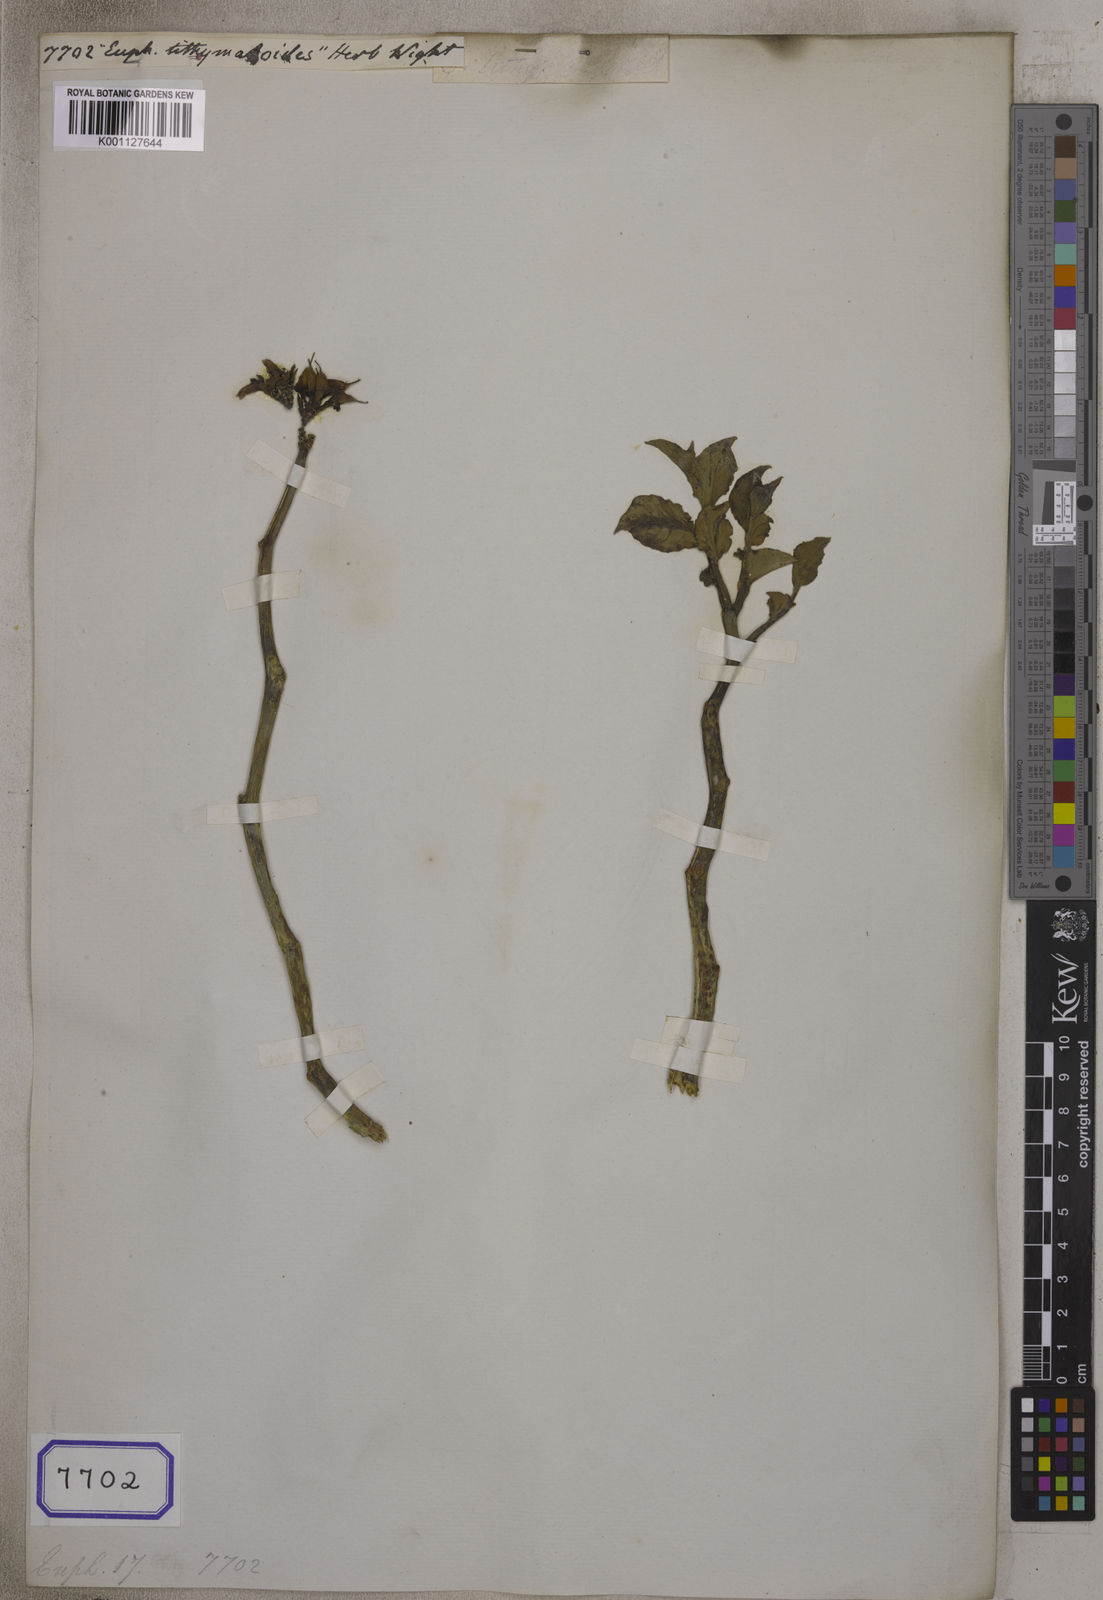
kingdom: Plantae
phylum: Tracheophyta
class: Magnoliopsida
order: Malpighiales
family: Euphorbiaceae
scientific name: Euphorbiaceae
